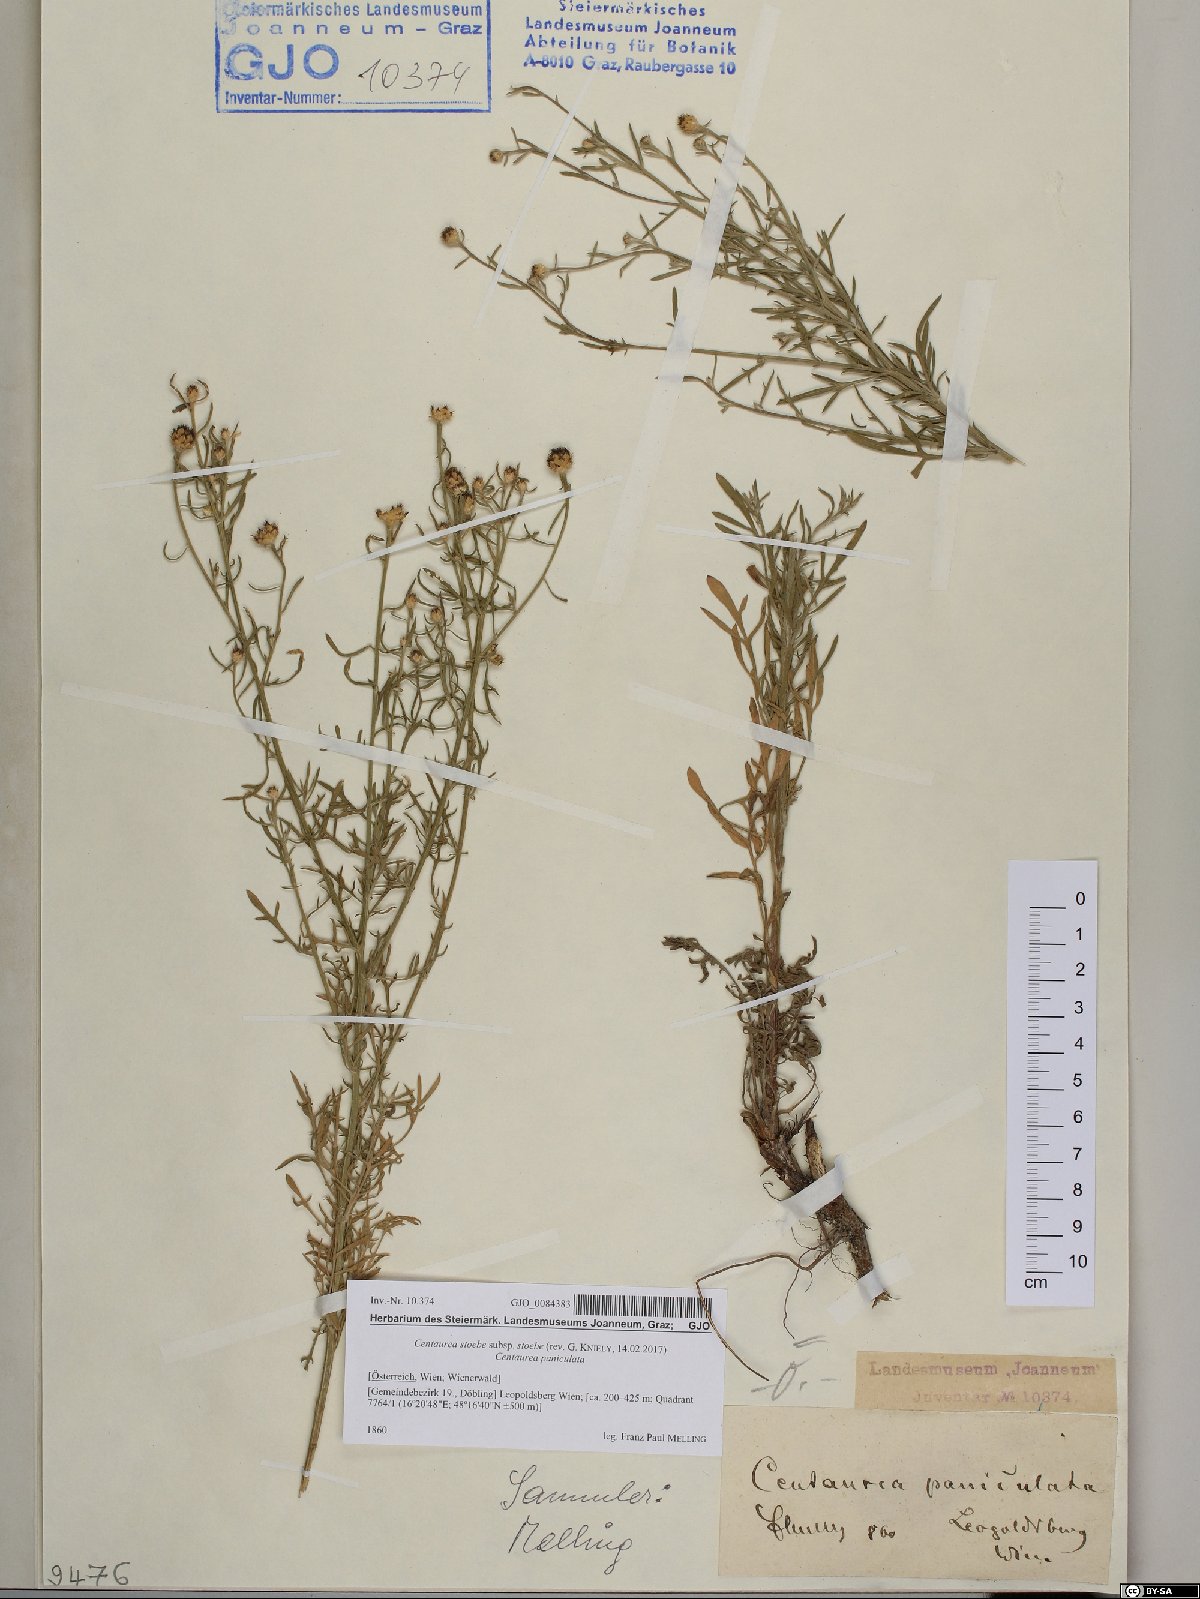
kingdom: Plantae
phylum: Tracheophyta
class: Magnoliopsida
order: Asterales
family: Asteraceae
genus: Centaurea
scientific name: Centaurea stoebe
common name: Spotted knapweed
